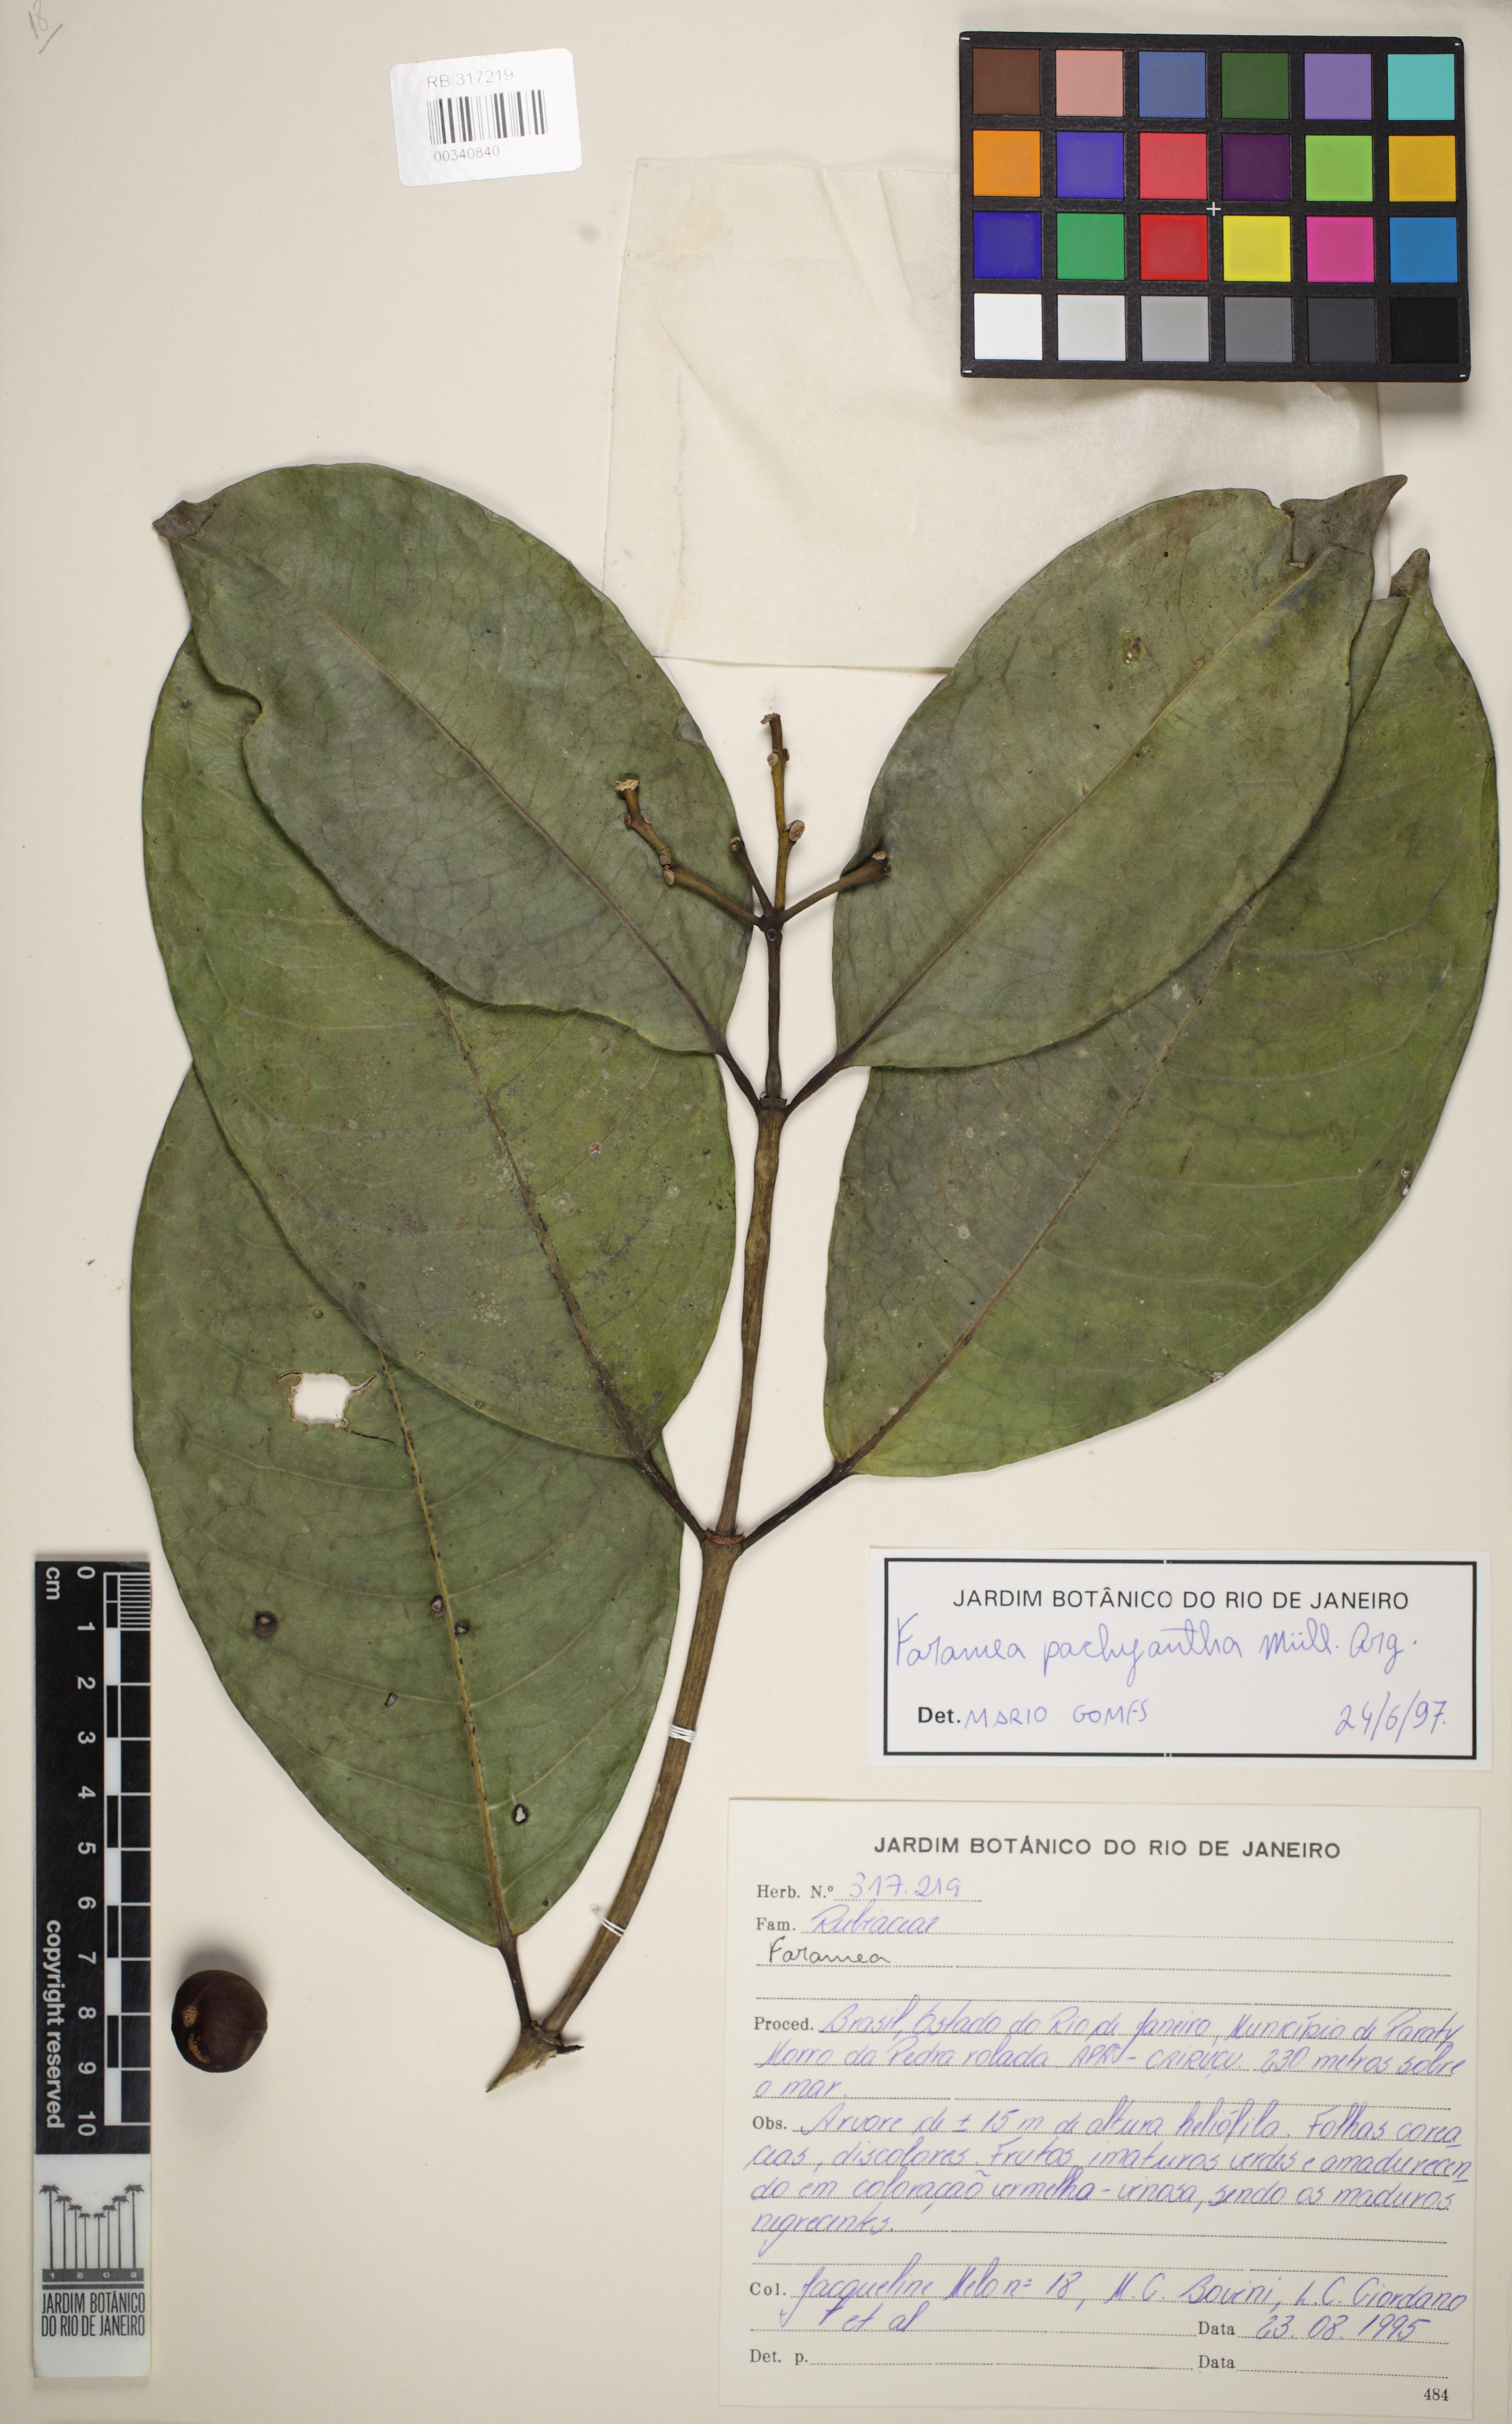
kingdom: Plantae
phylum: Tracheophyta
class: Magnoliopsida
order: Gentianales
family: Rubiaceae
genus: Faramea
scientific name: Faramea pachyantha
